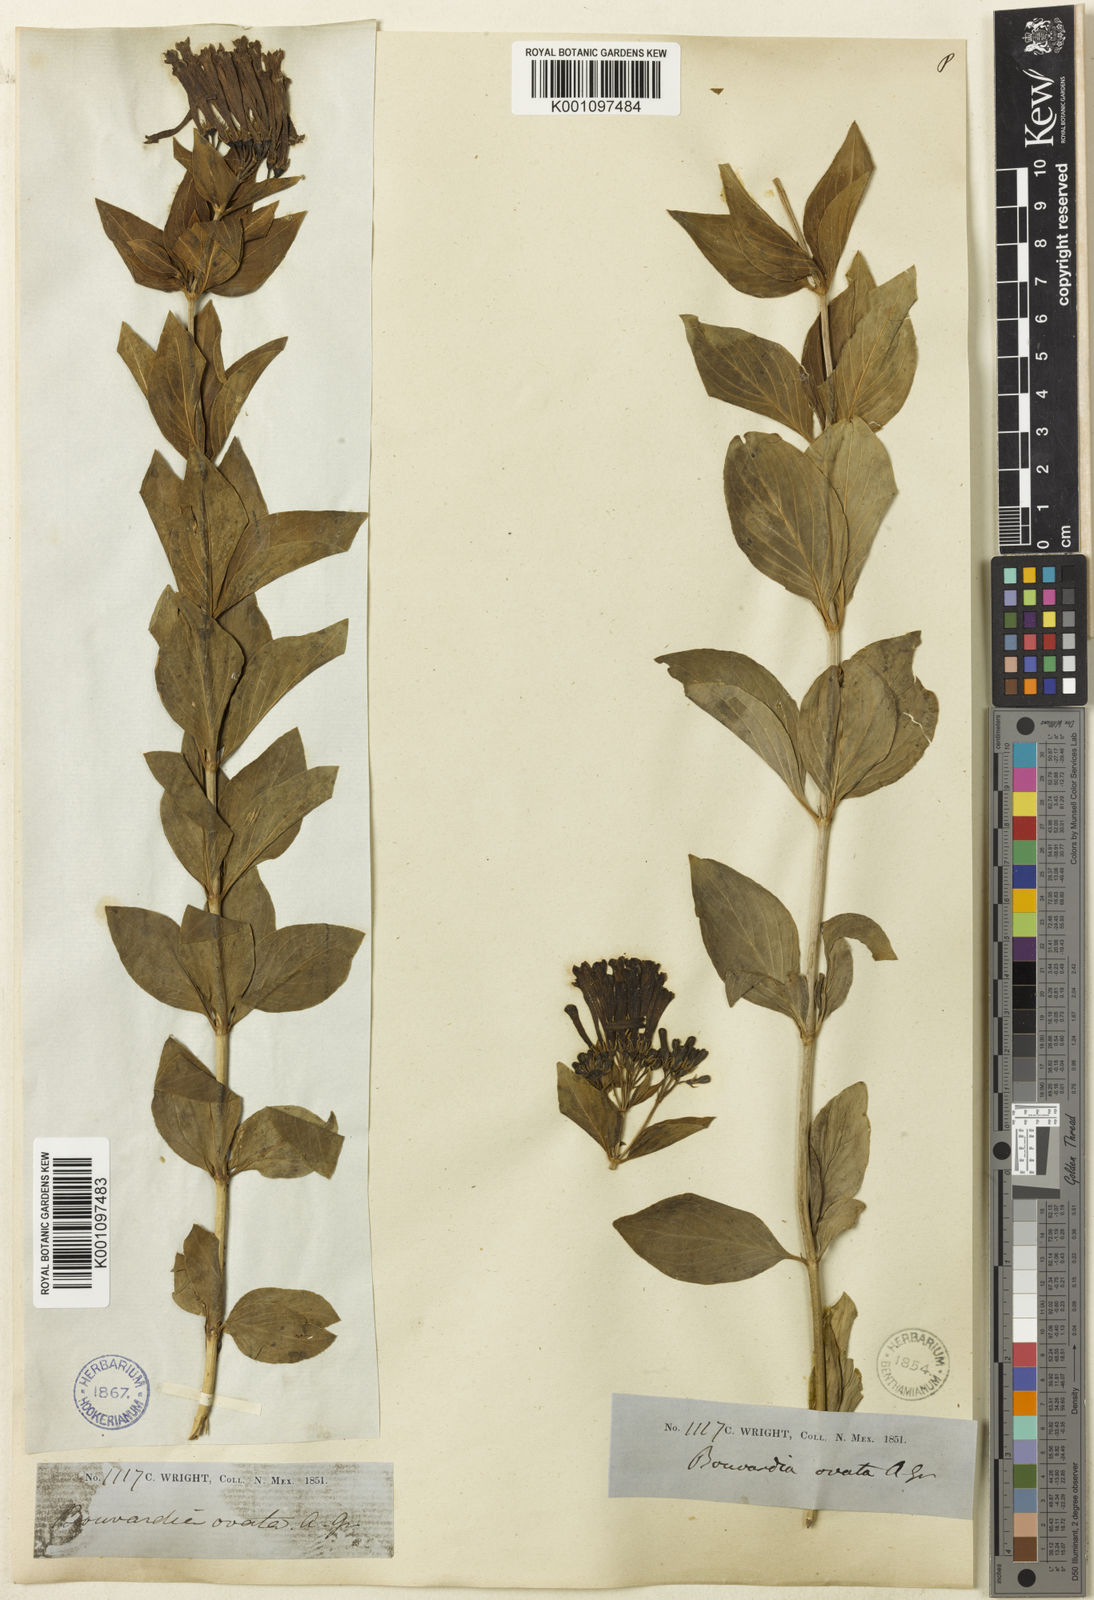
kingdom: Plantae
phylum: Tracheophyta
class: Magnoliopsida
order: Gentianales
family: Rubiaceae
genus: Bouvardia
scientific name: Bouvardia ternifolia
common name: Scarlet bouvardia
